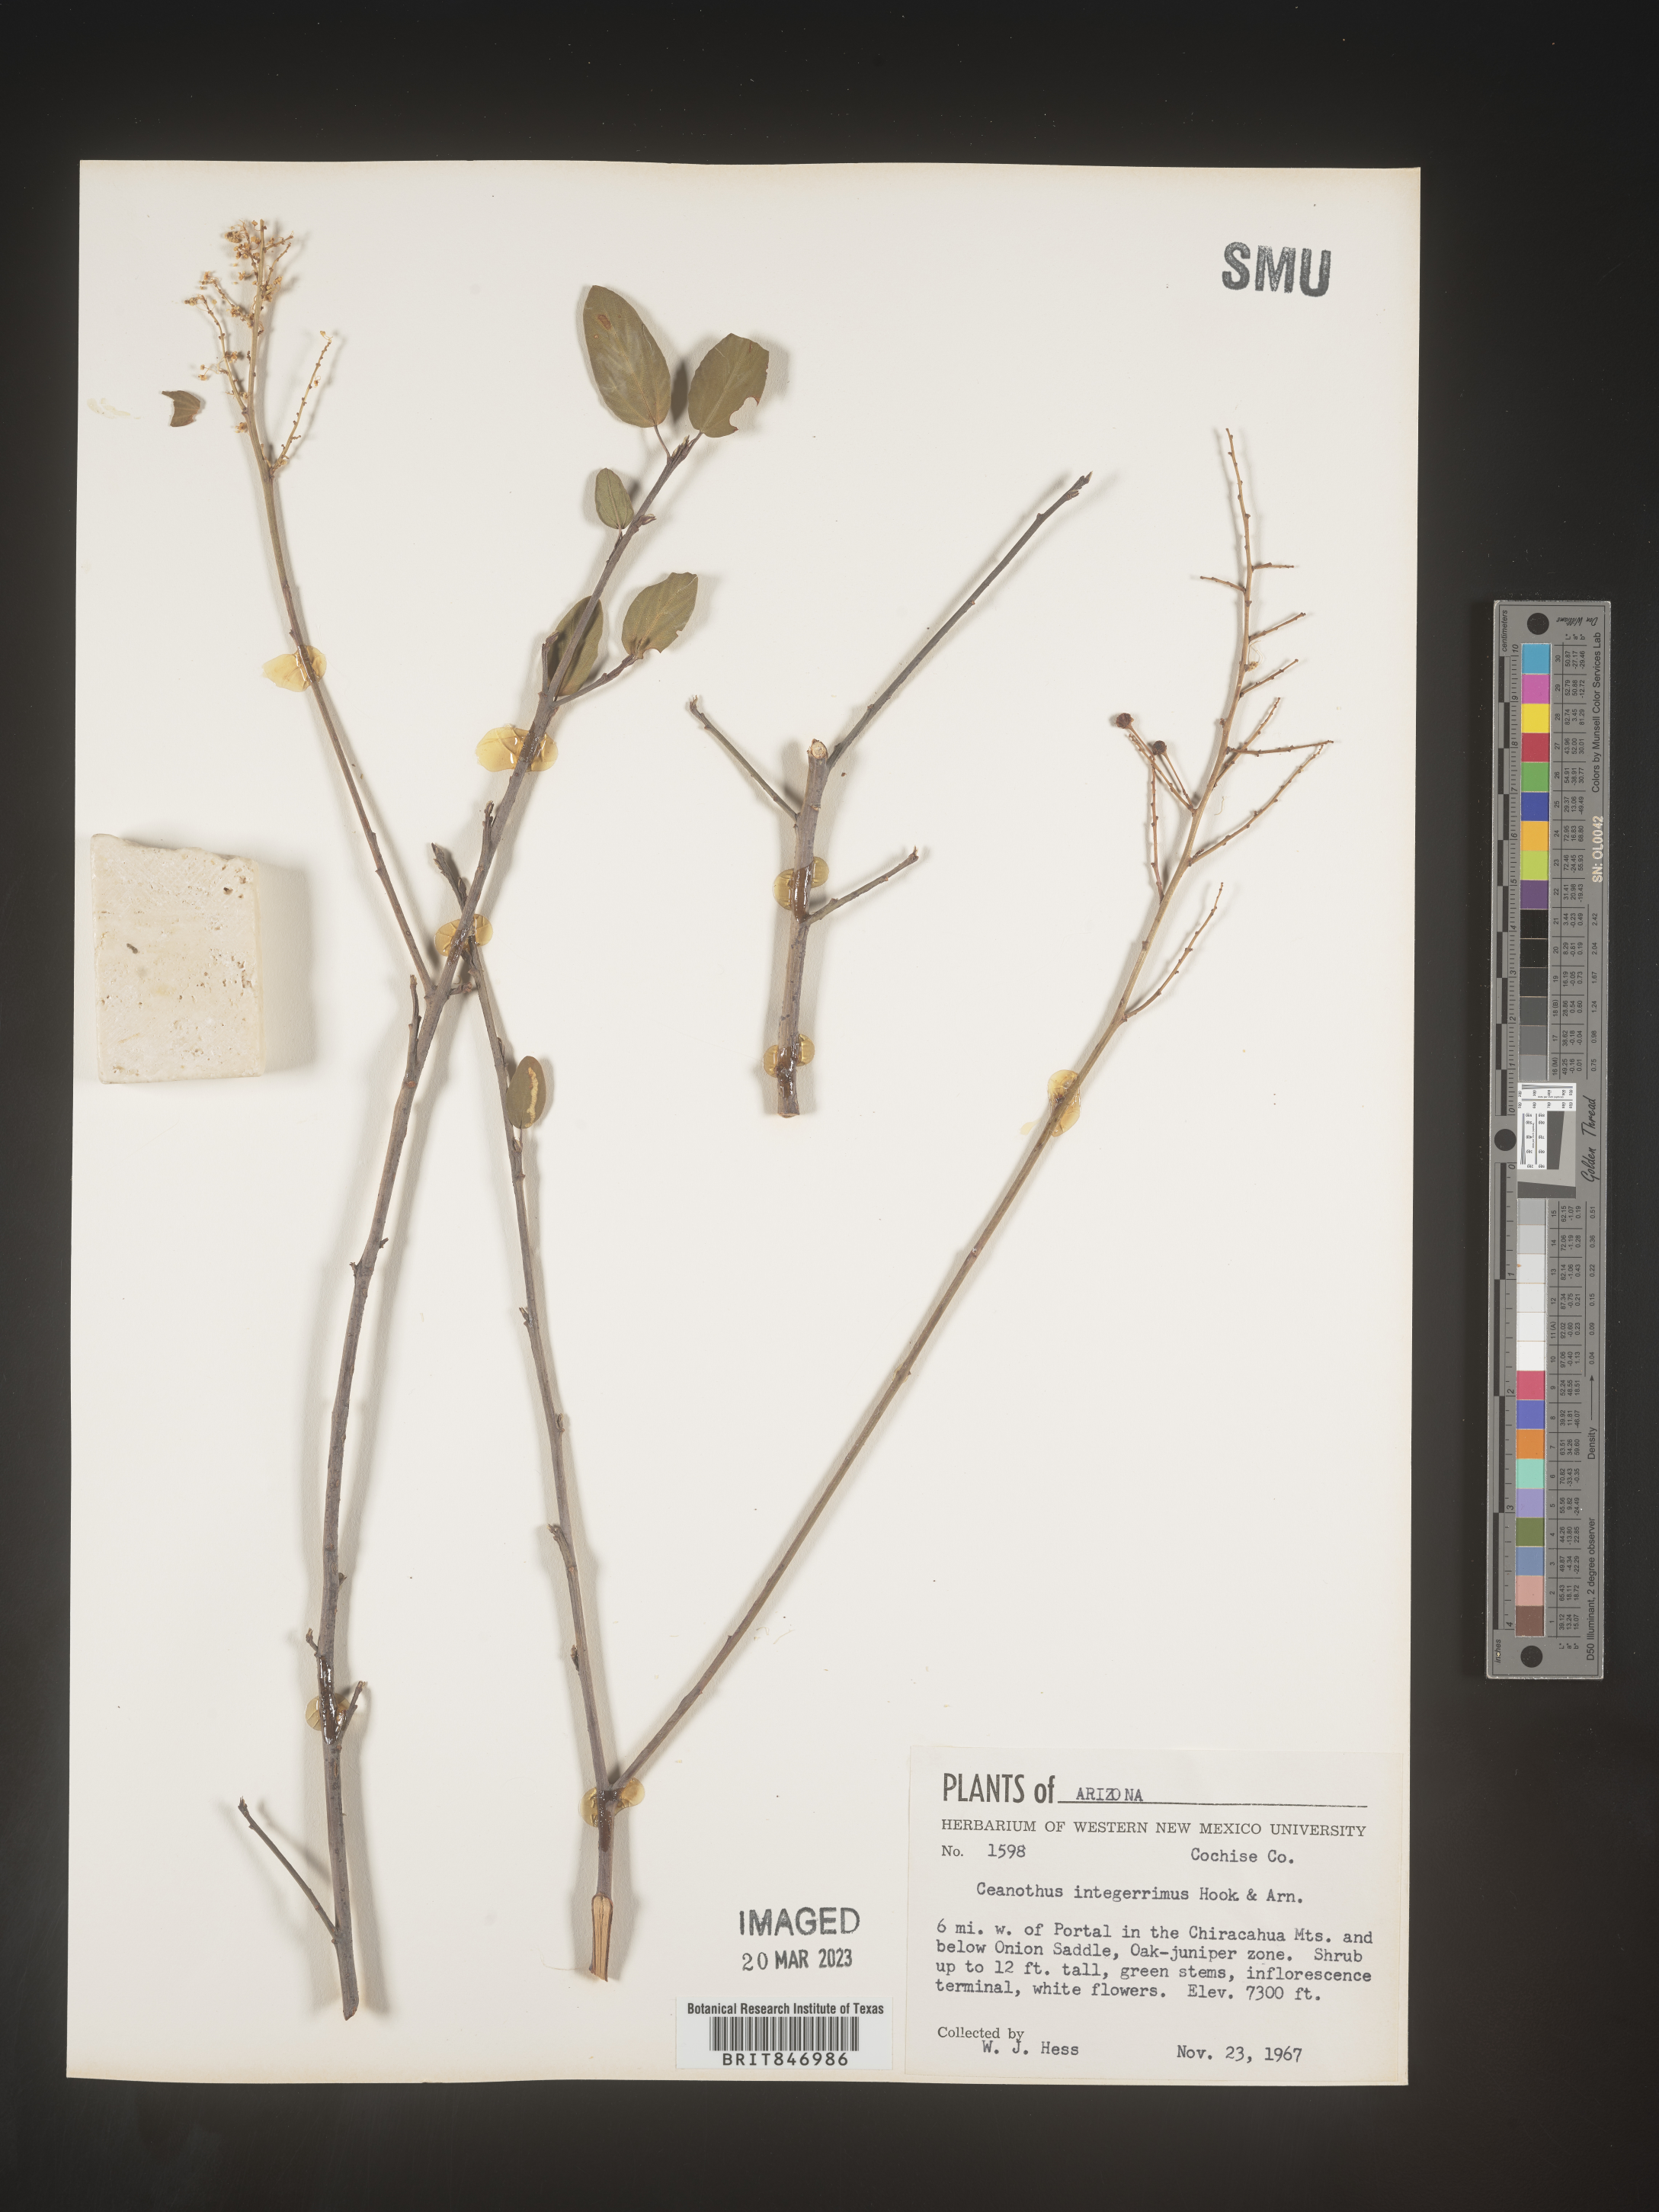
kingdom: Plantae
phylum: Tracheophyta
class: Magnoliopsida
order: Rosales
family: Rhamnaceae
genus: Ceanothus
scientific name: Ceanothus integerrimus
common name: Deerbrush ceanothus
